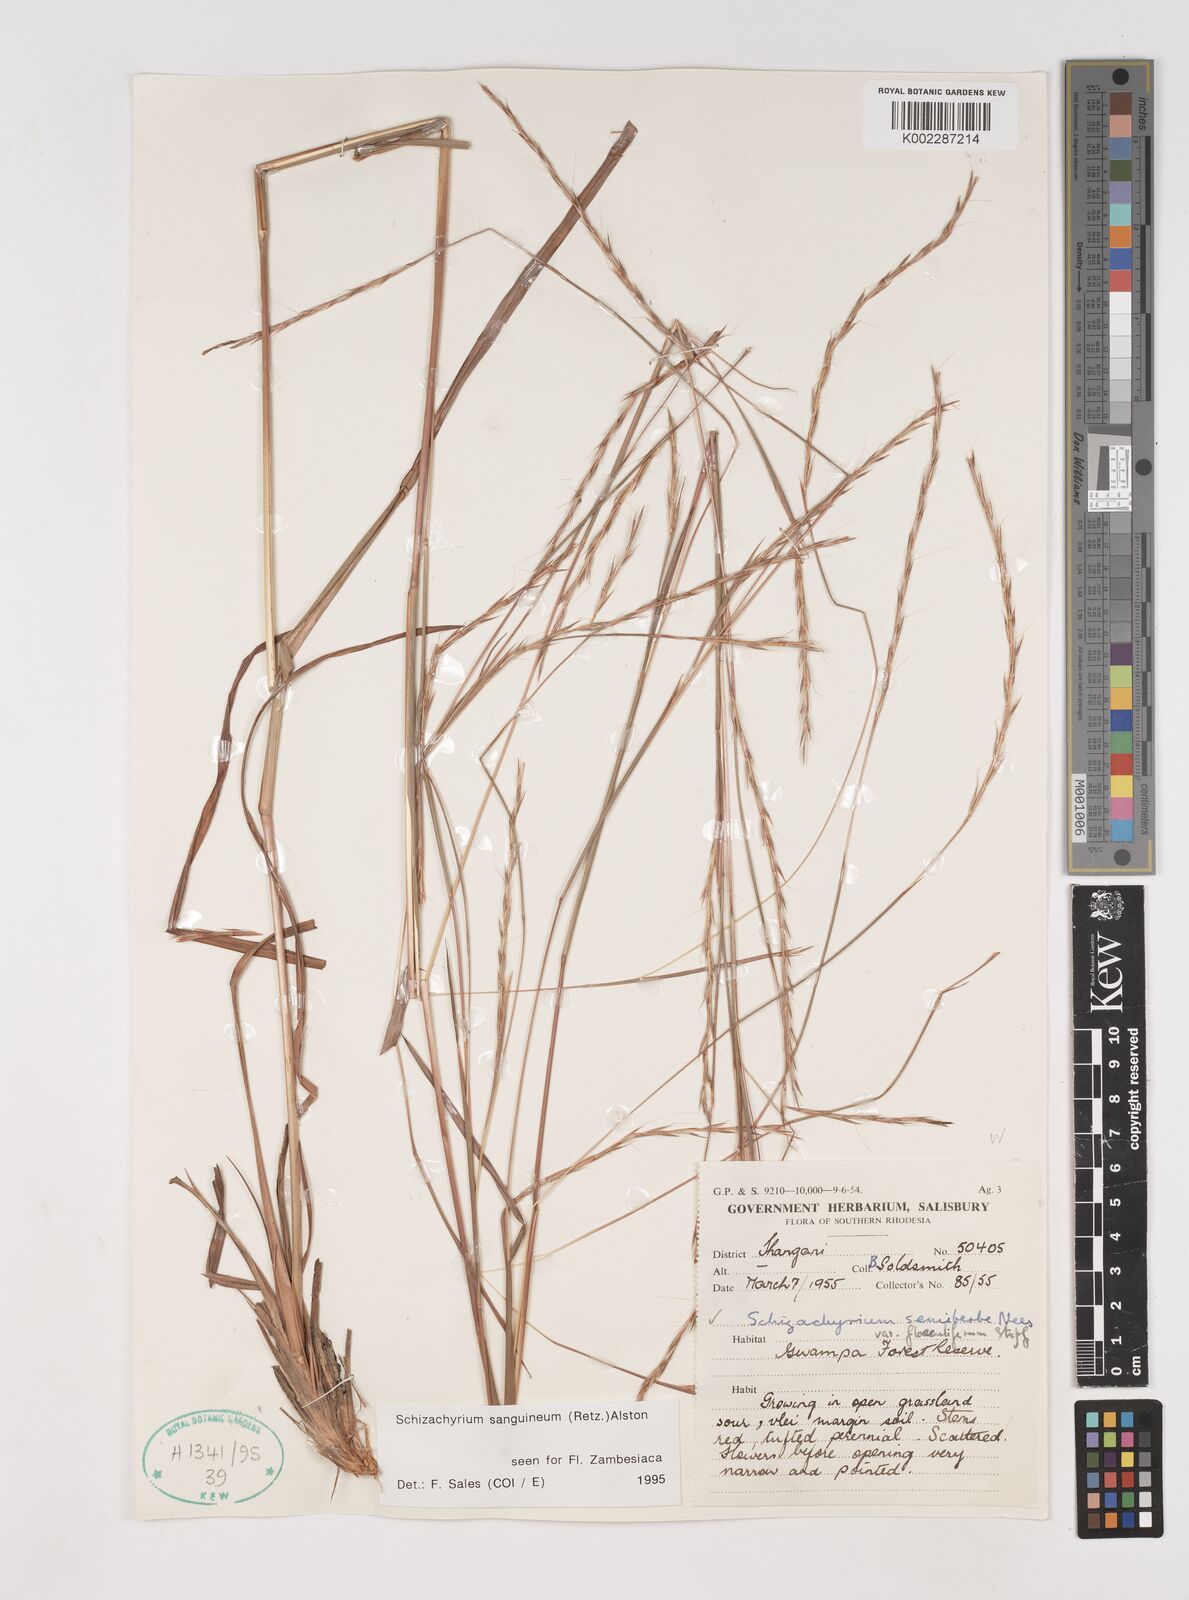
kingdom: Plantae
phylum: Tracheophyta
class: Liliopsida
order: Poales
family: Poaceae
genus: Schizachyrium
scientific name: Schizachyrium sanguineum
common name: Crimson bluestem
